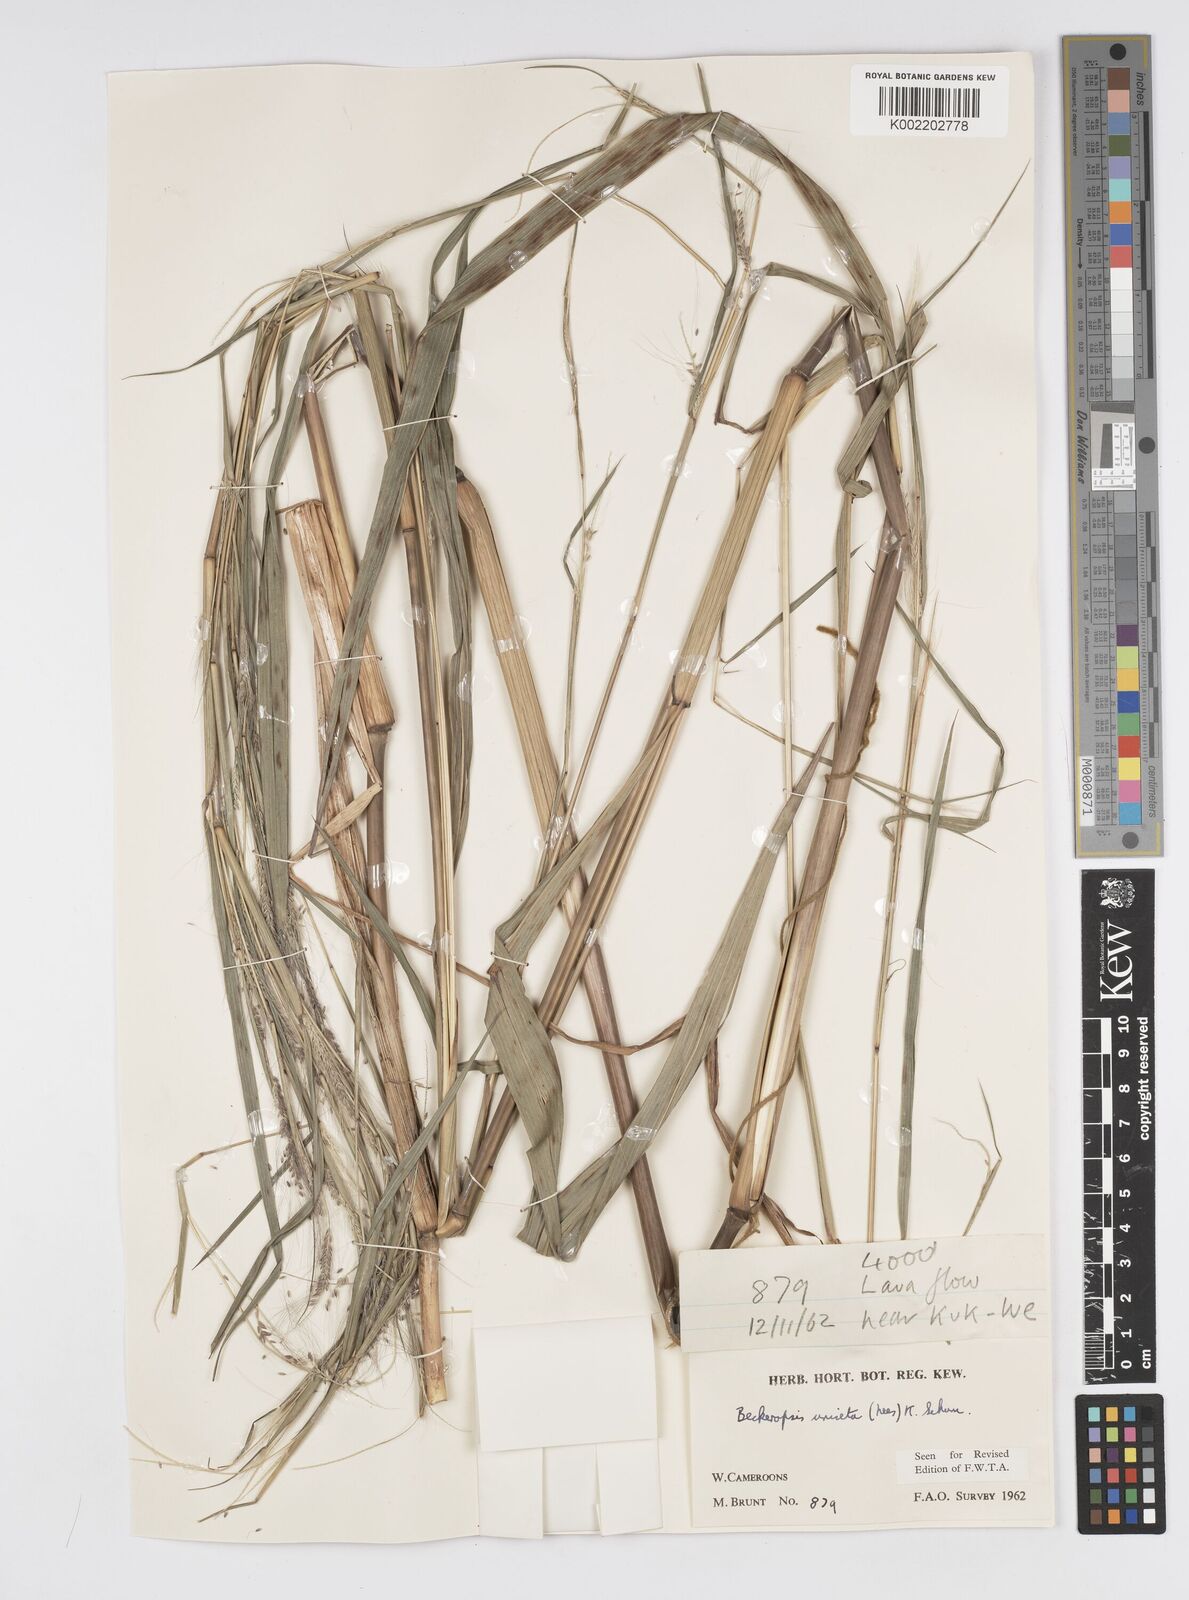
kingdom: Plantae
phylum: Tracheophyta
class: Liliopsida
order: Poales
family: Poaceae
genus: Cenchrus
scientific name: Cenchrus unisetus
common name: Natal grass
